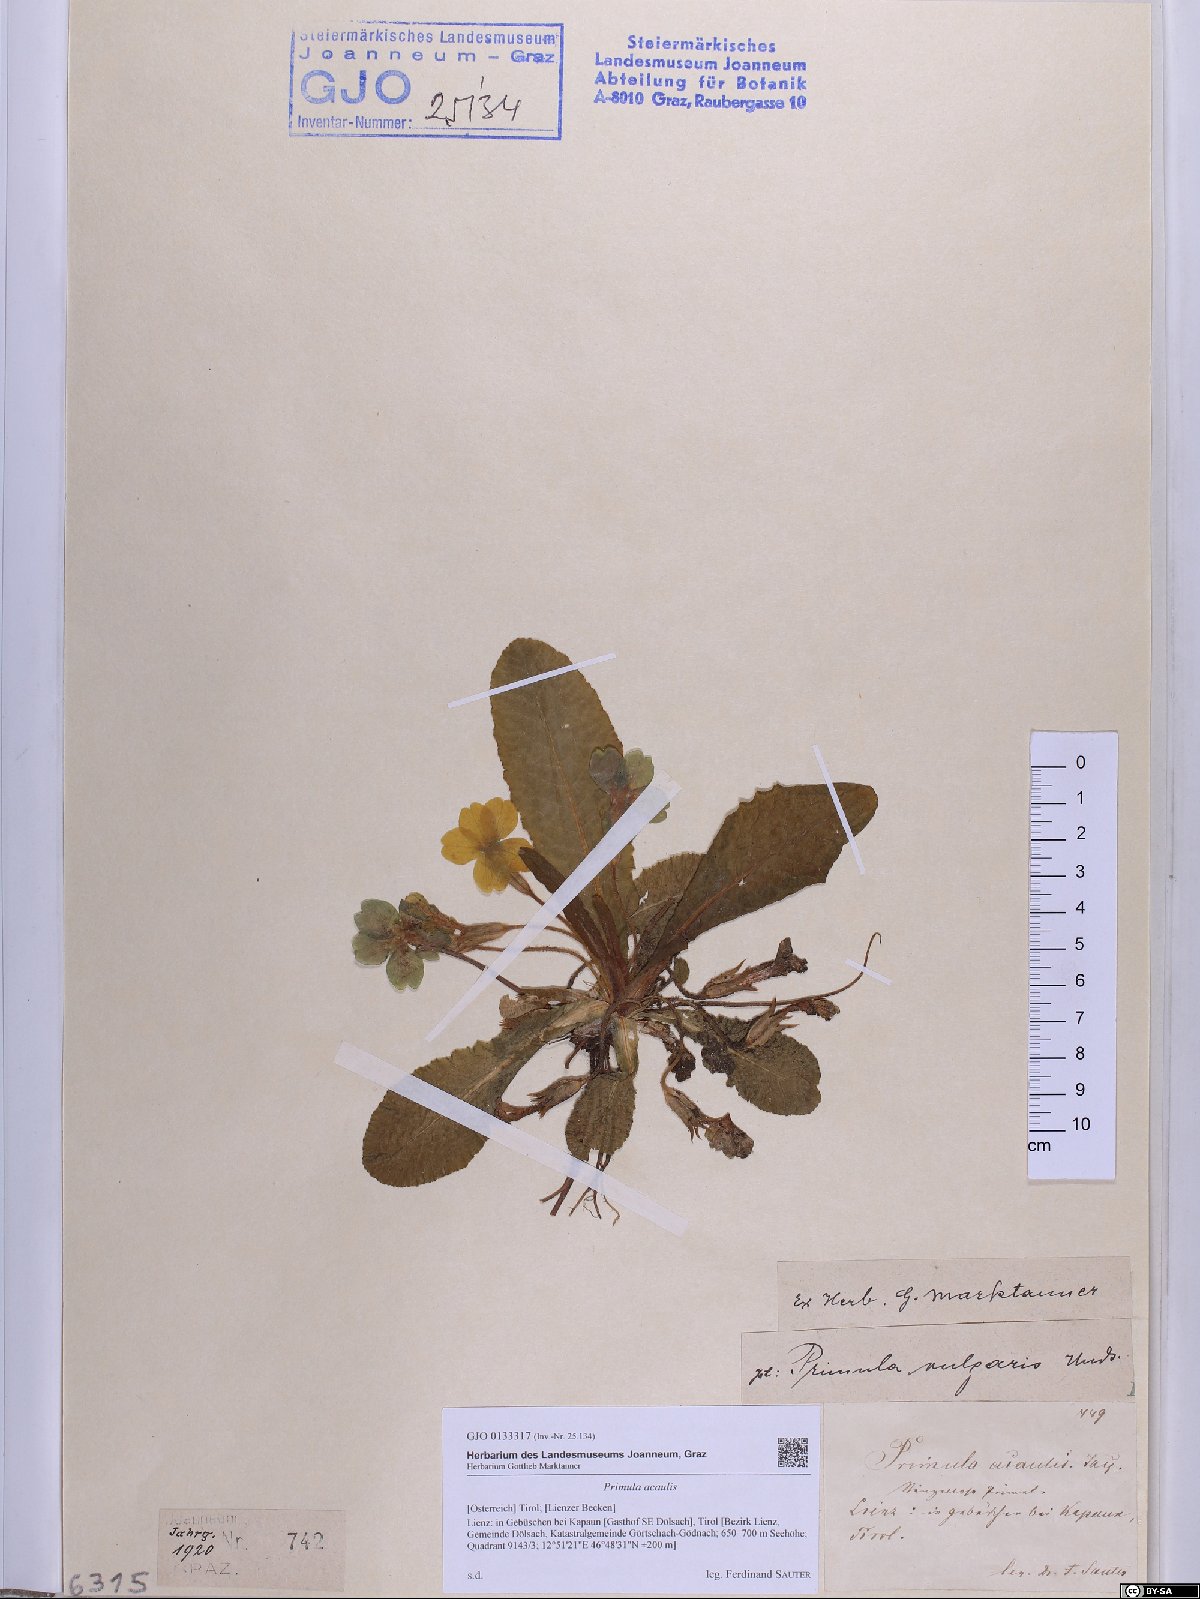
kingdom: Plantae
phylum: Tracheophyta
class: Magnoliopsida
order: Ericales
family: Primulaceae
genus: Primula
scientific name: Primula vulgaris
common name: Primrose
